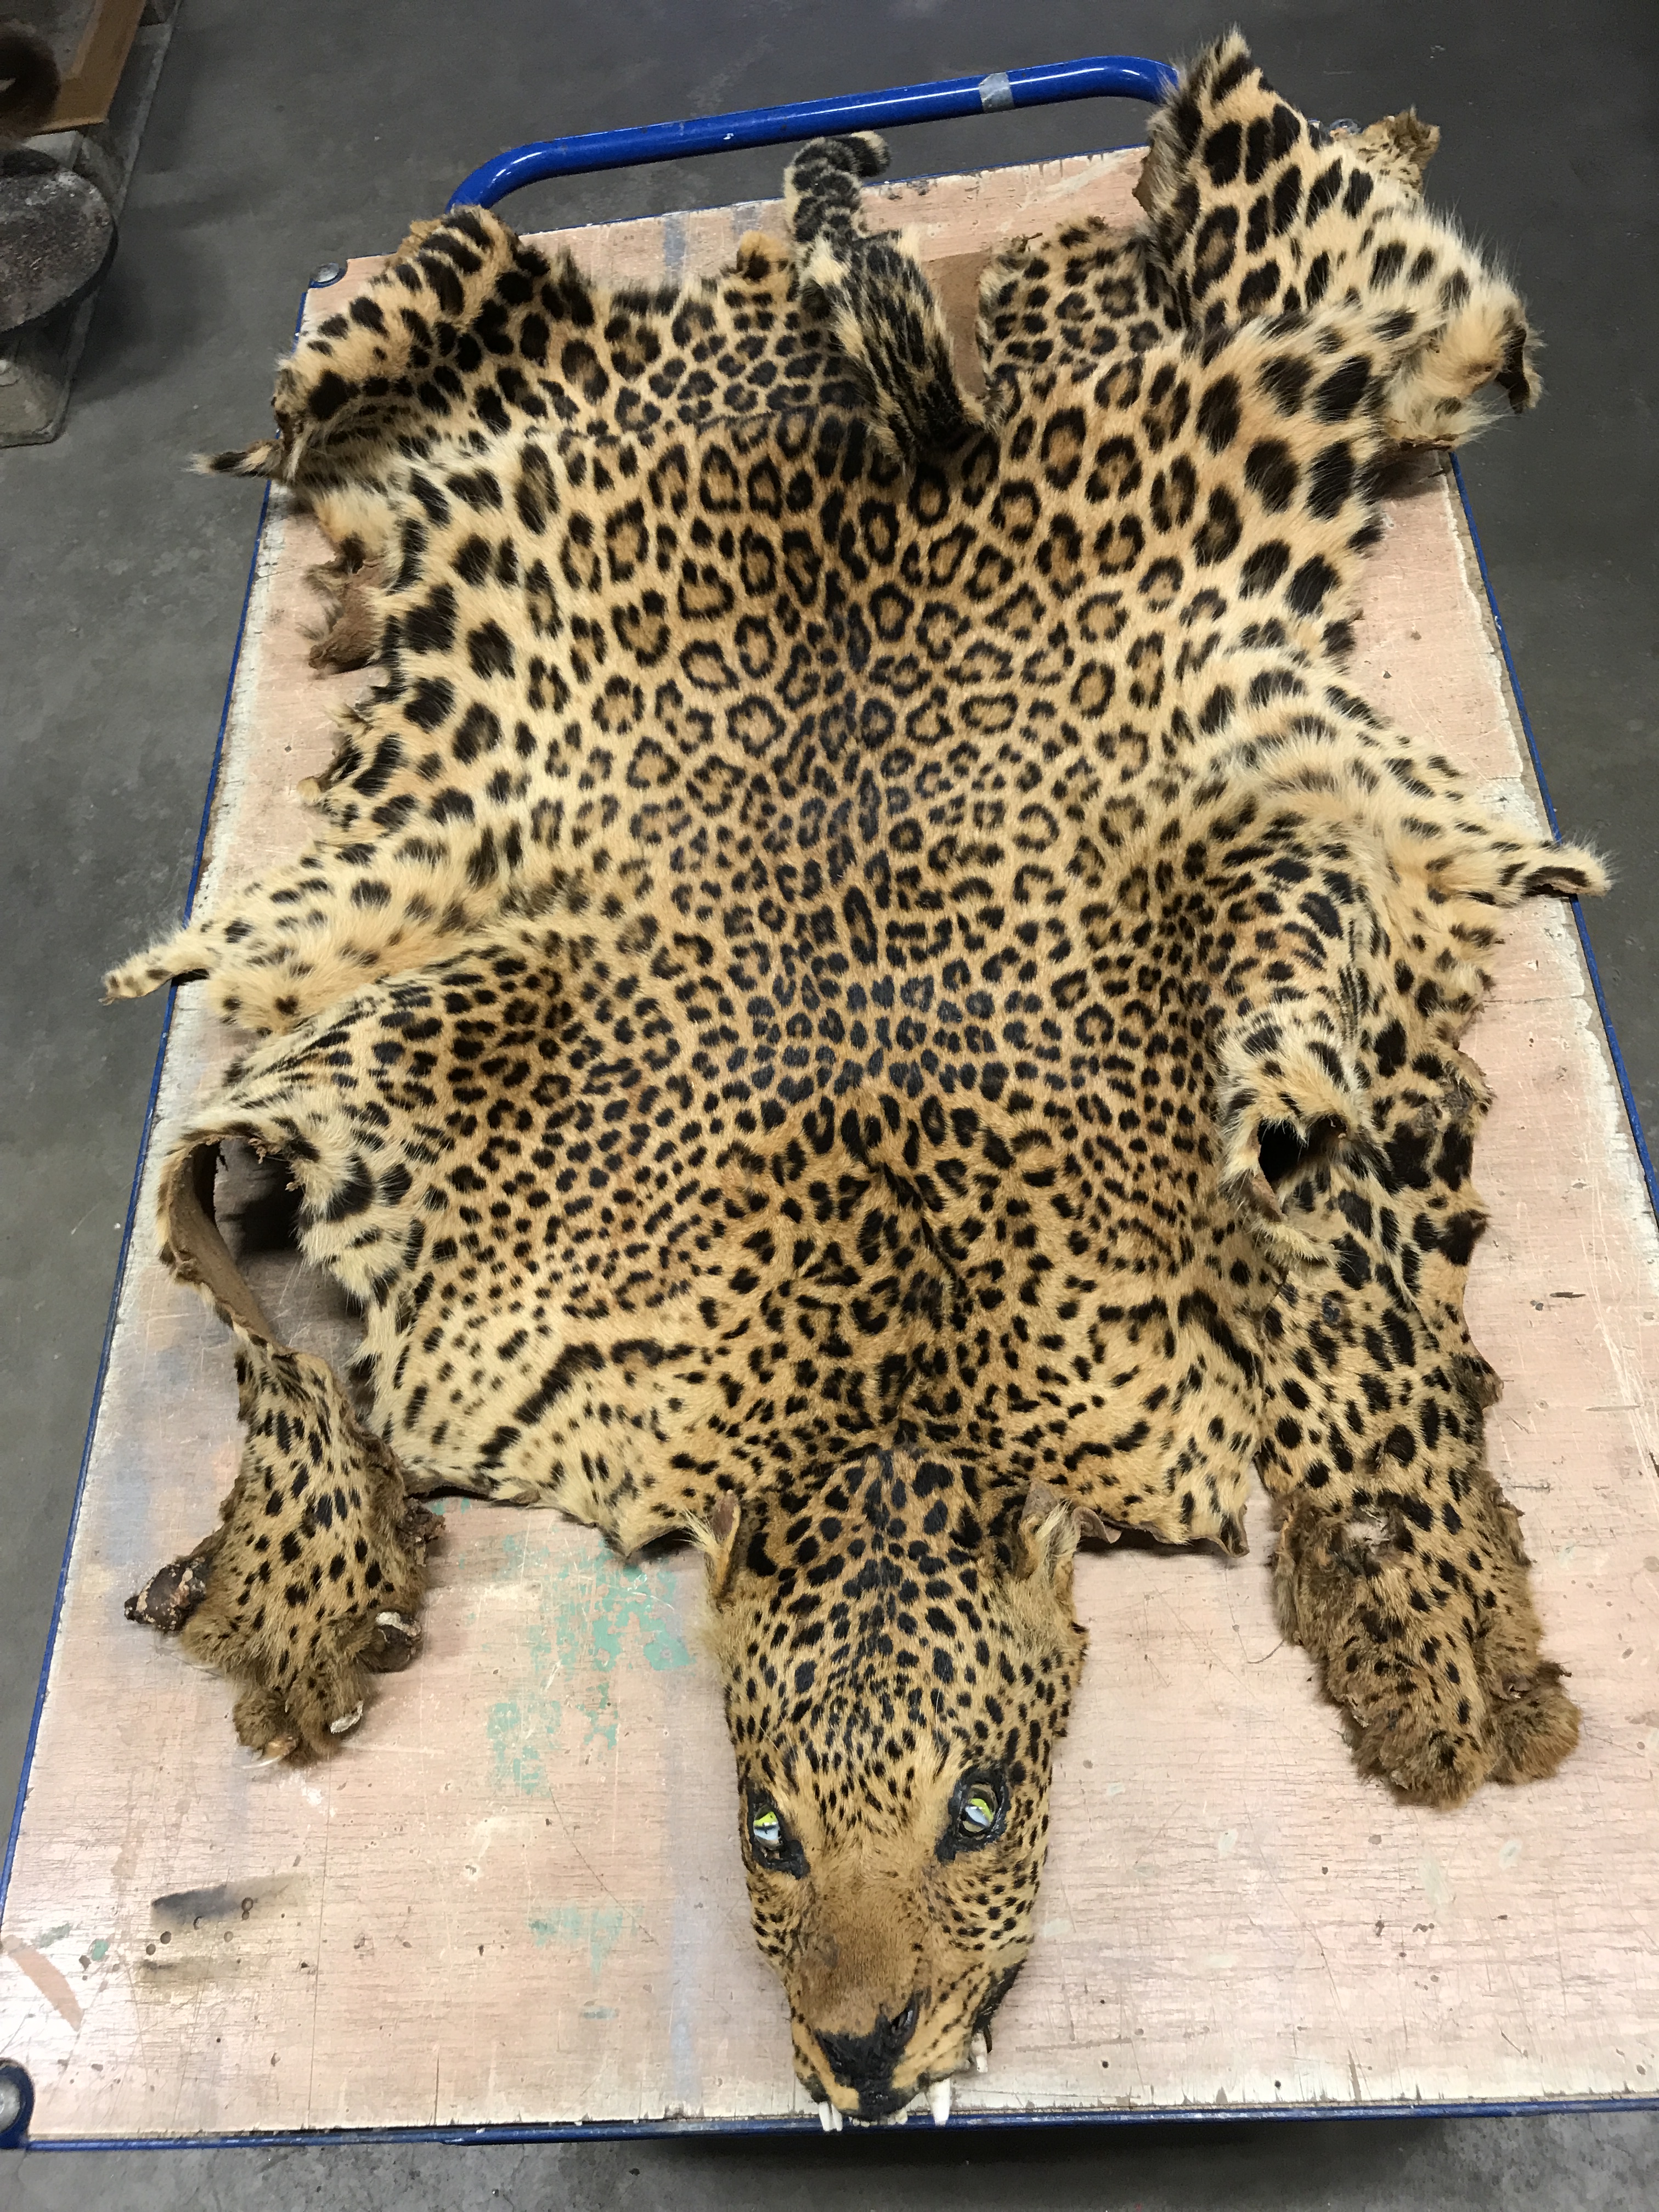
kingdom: Animalia
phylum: Chordata
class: Mammalia
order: Carnivora
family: Felidae
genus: Panthera
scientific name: Panthera pardus
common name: Leopard
